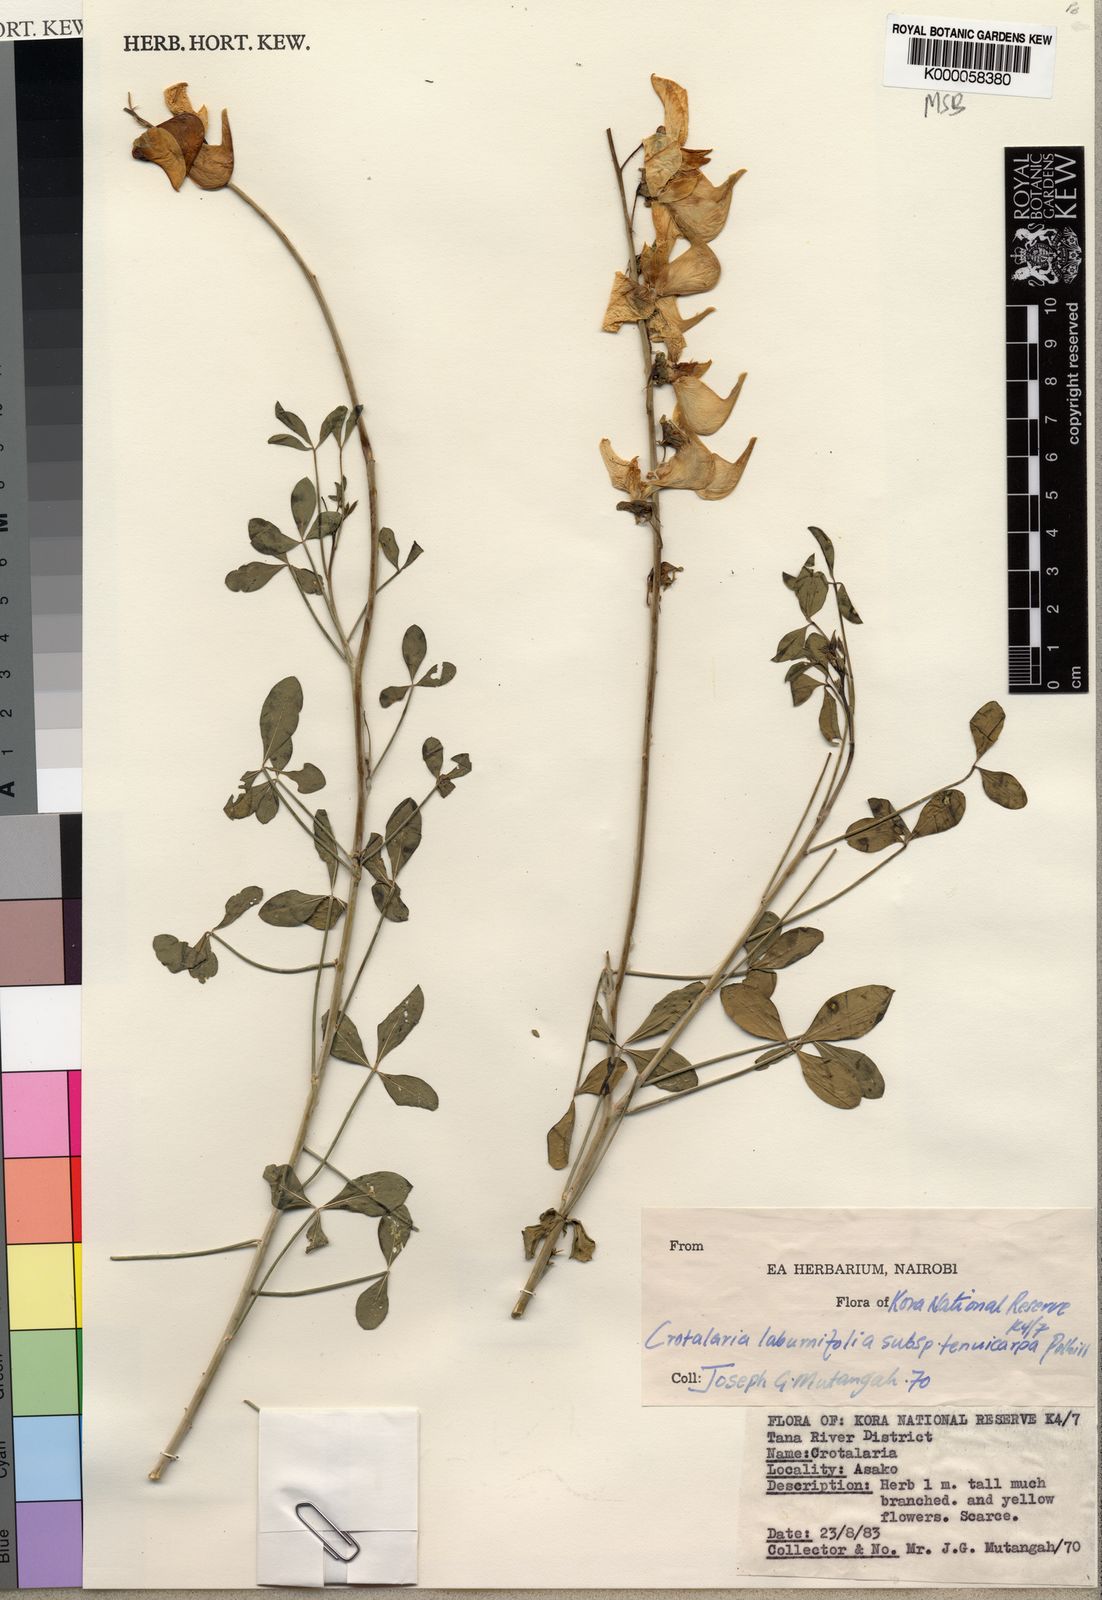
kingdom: Plantae
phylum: Tracheophyta
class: Magnoliopsida
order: Fabales
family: Fabaceae
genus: Crotalaria
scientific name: Crotalaria laburnifolia
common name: Birdflower
